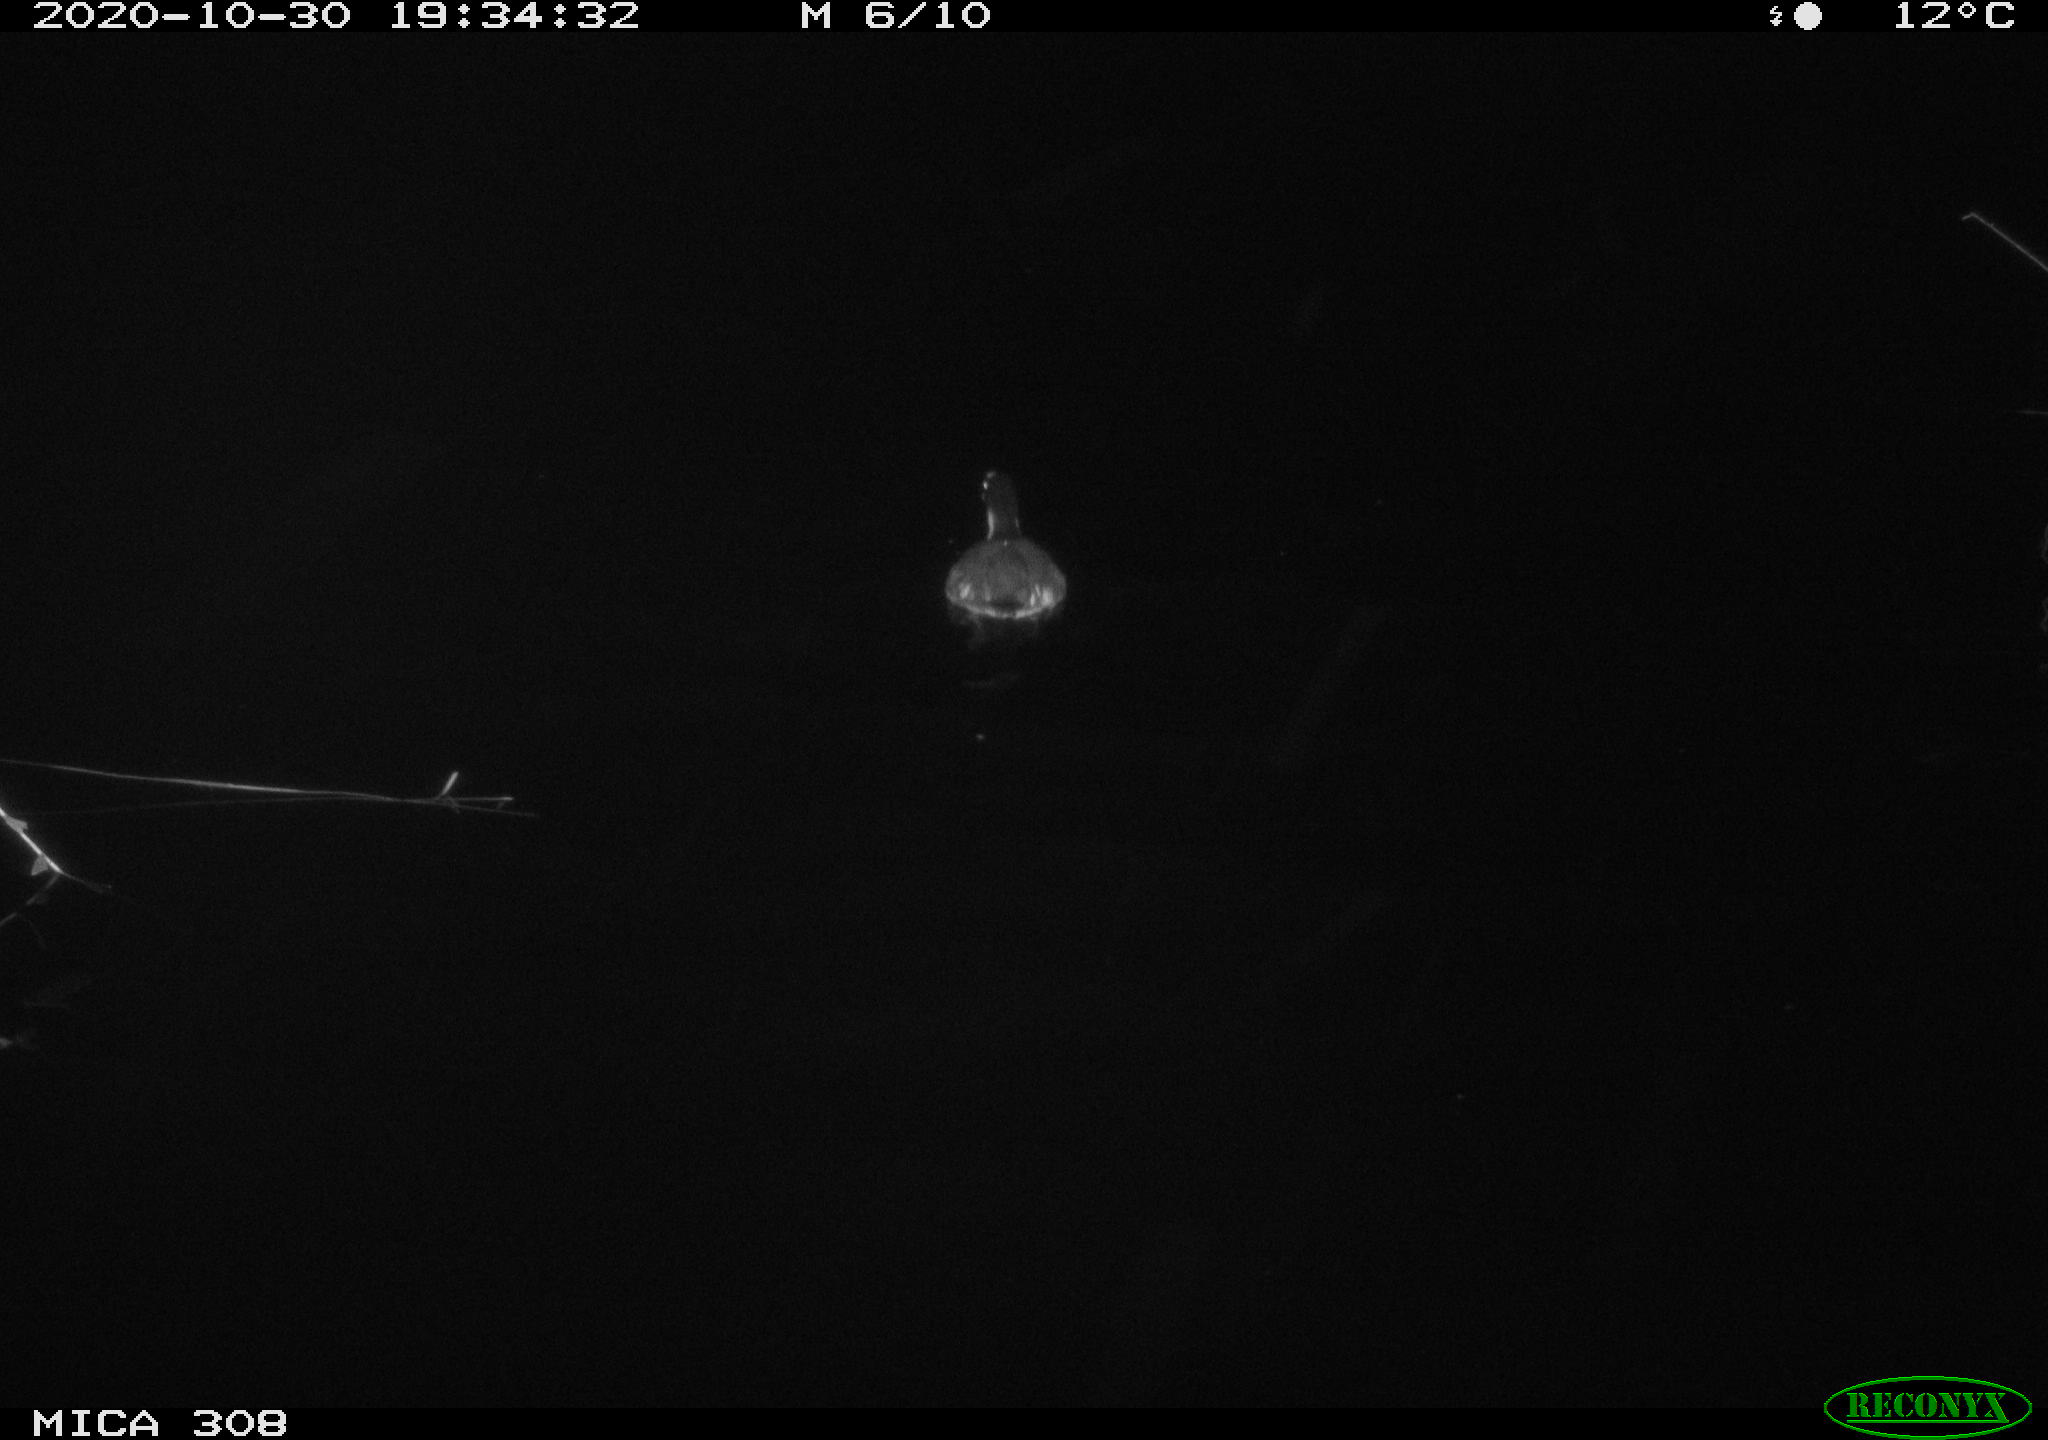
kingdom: Animalia
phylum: Chordata
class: Aves
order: Gruiformes
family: Rallidae
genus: Fulica
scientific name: Fulica atra
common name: Eurasian coot
